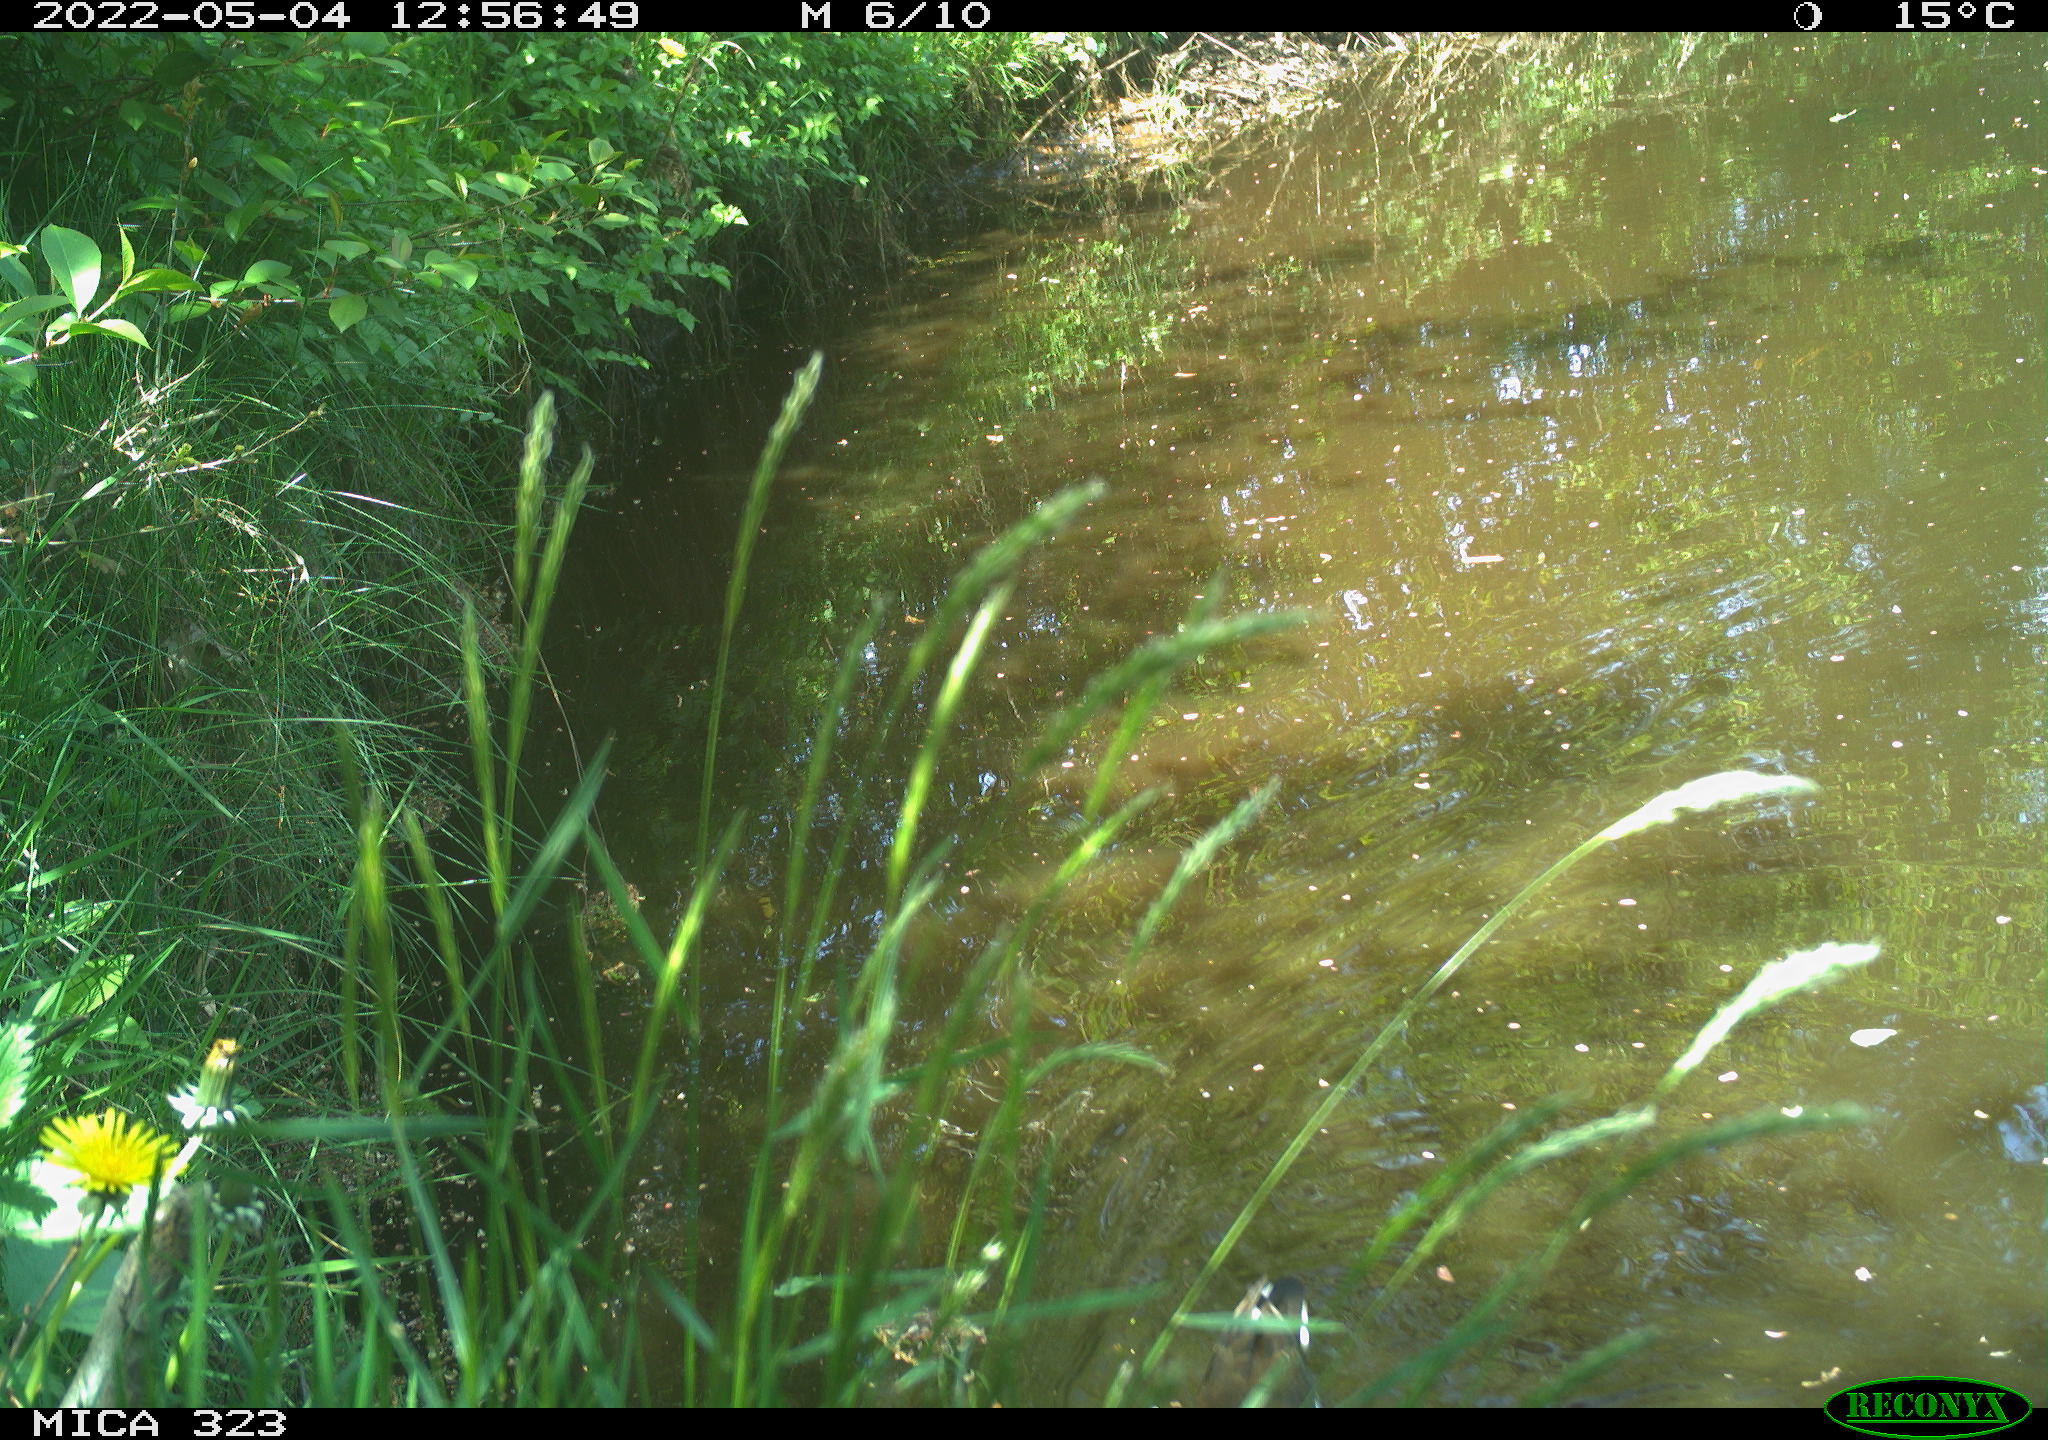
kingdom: Animalia
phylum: Chordata
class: Aves
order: Gruiformes
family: Rallidae
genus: Gallinula
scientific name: Gallinula chloropus
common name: Common moorhen
